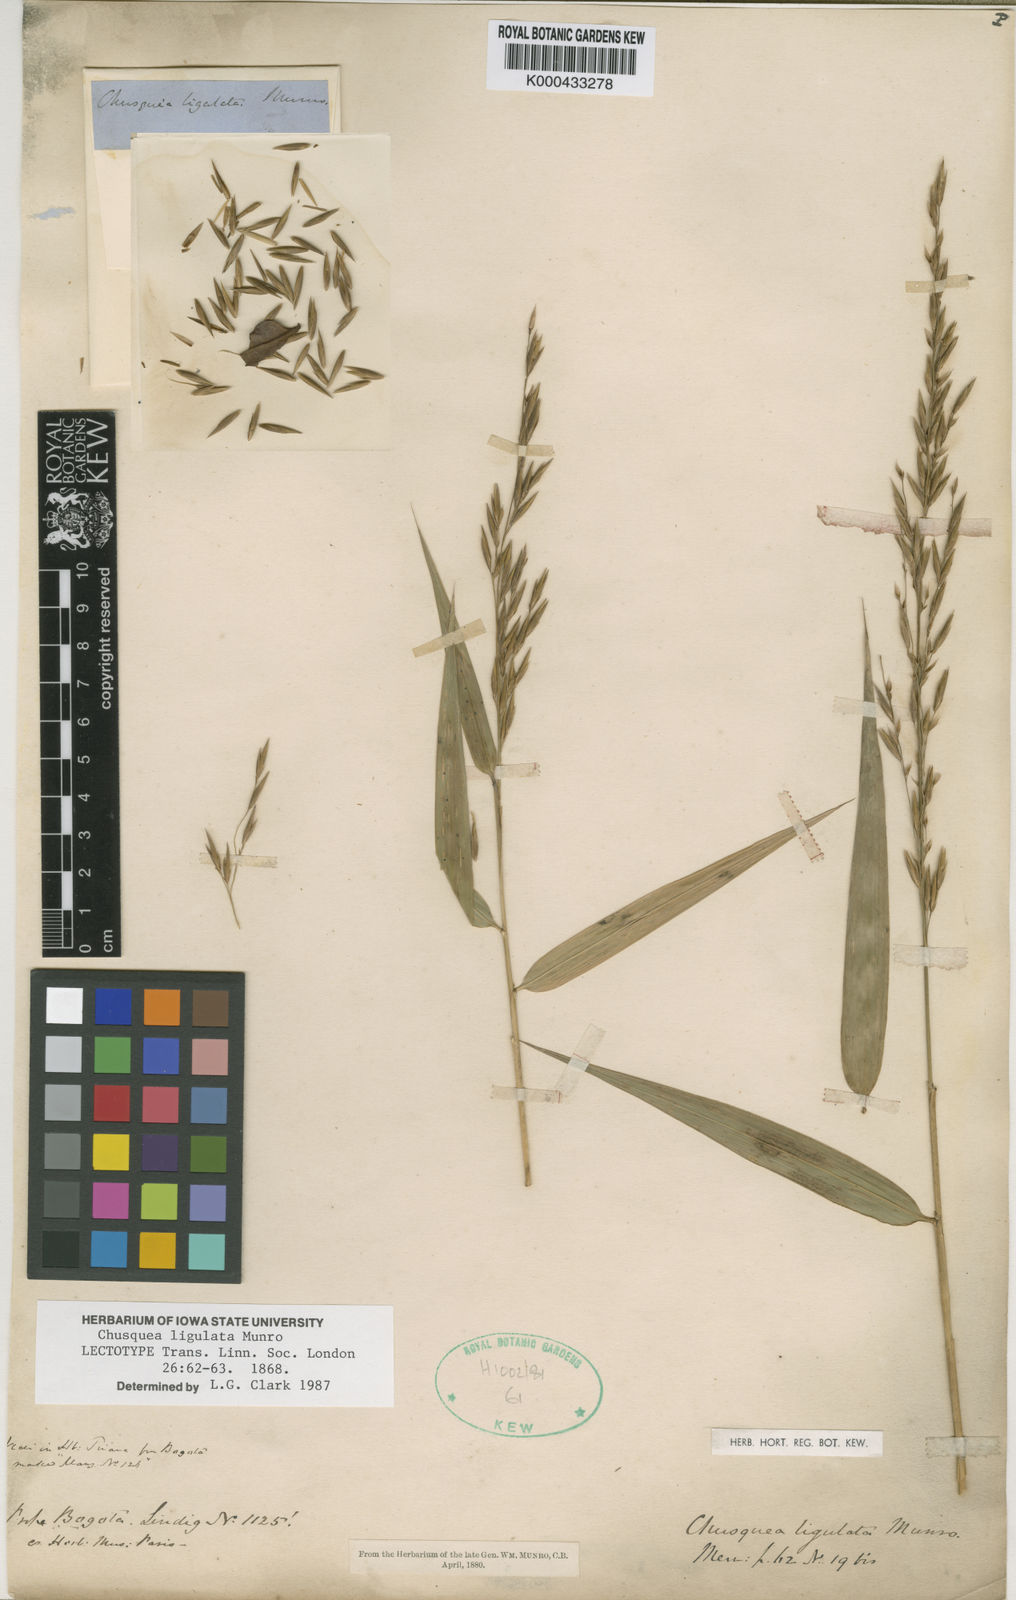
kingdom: Plantae
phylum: Tracheophyta
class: Liliopsida
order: Poales
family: Poaceae
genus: Chusquea
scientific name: Chusquea ligulata
